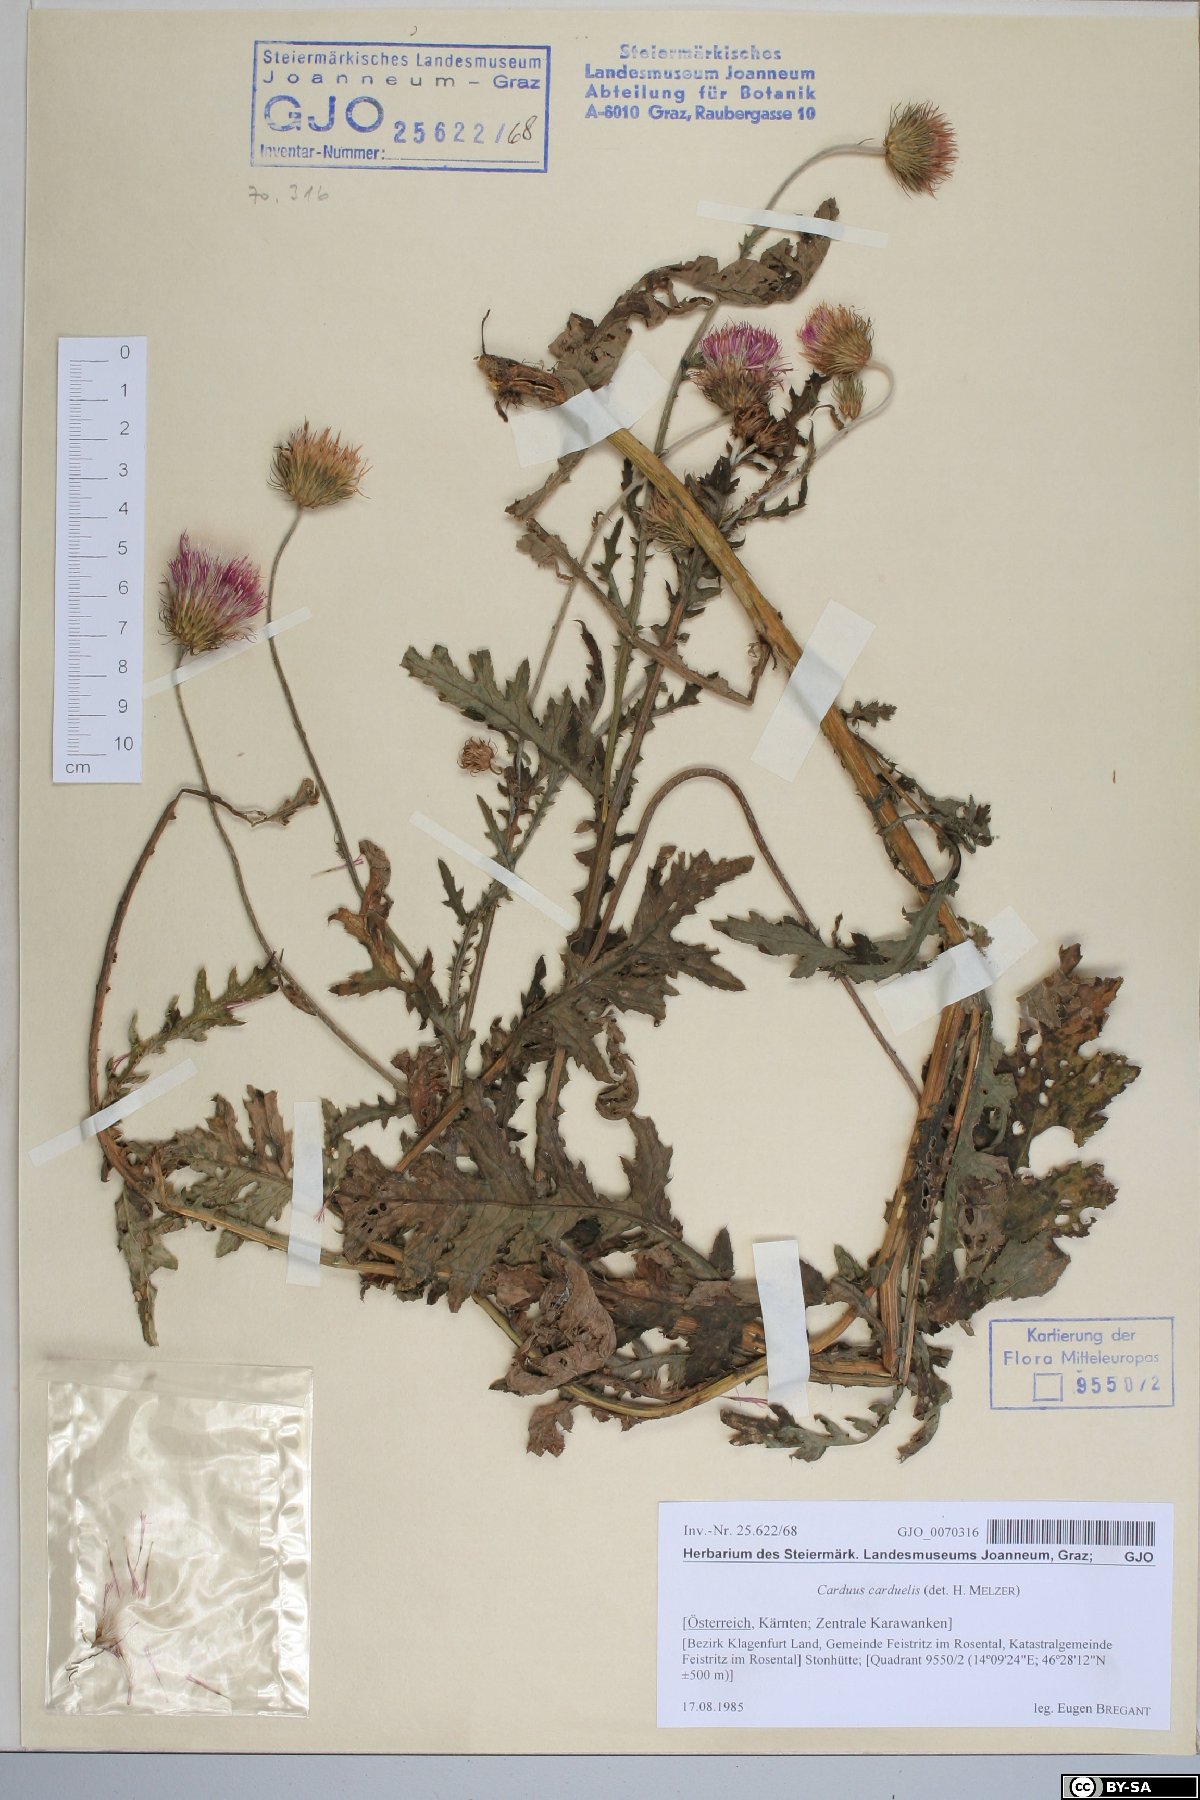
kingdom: Plantae
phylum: Tracheophyta
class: Magnoliopsida
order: Asterales
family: Asteraceae
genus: Carduus
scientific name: Carduus carduelis
